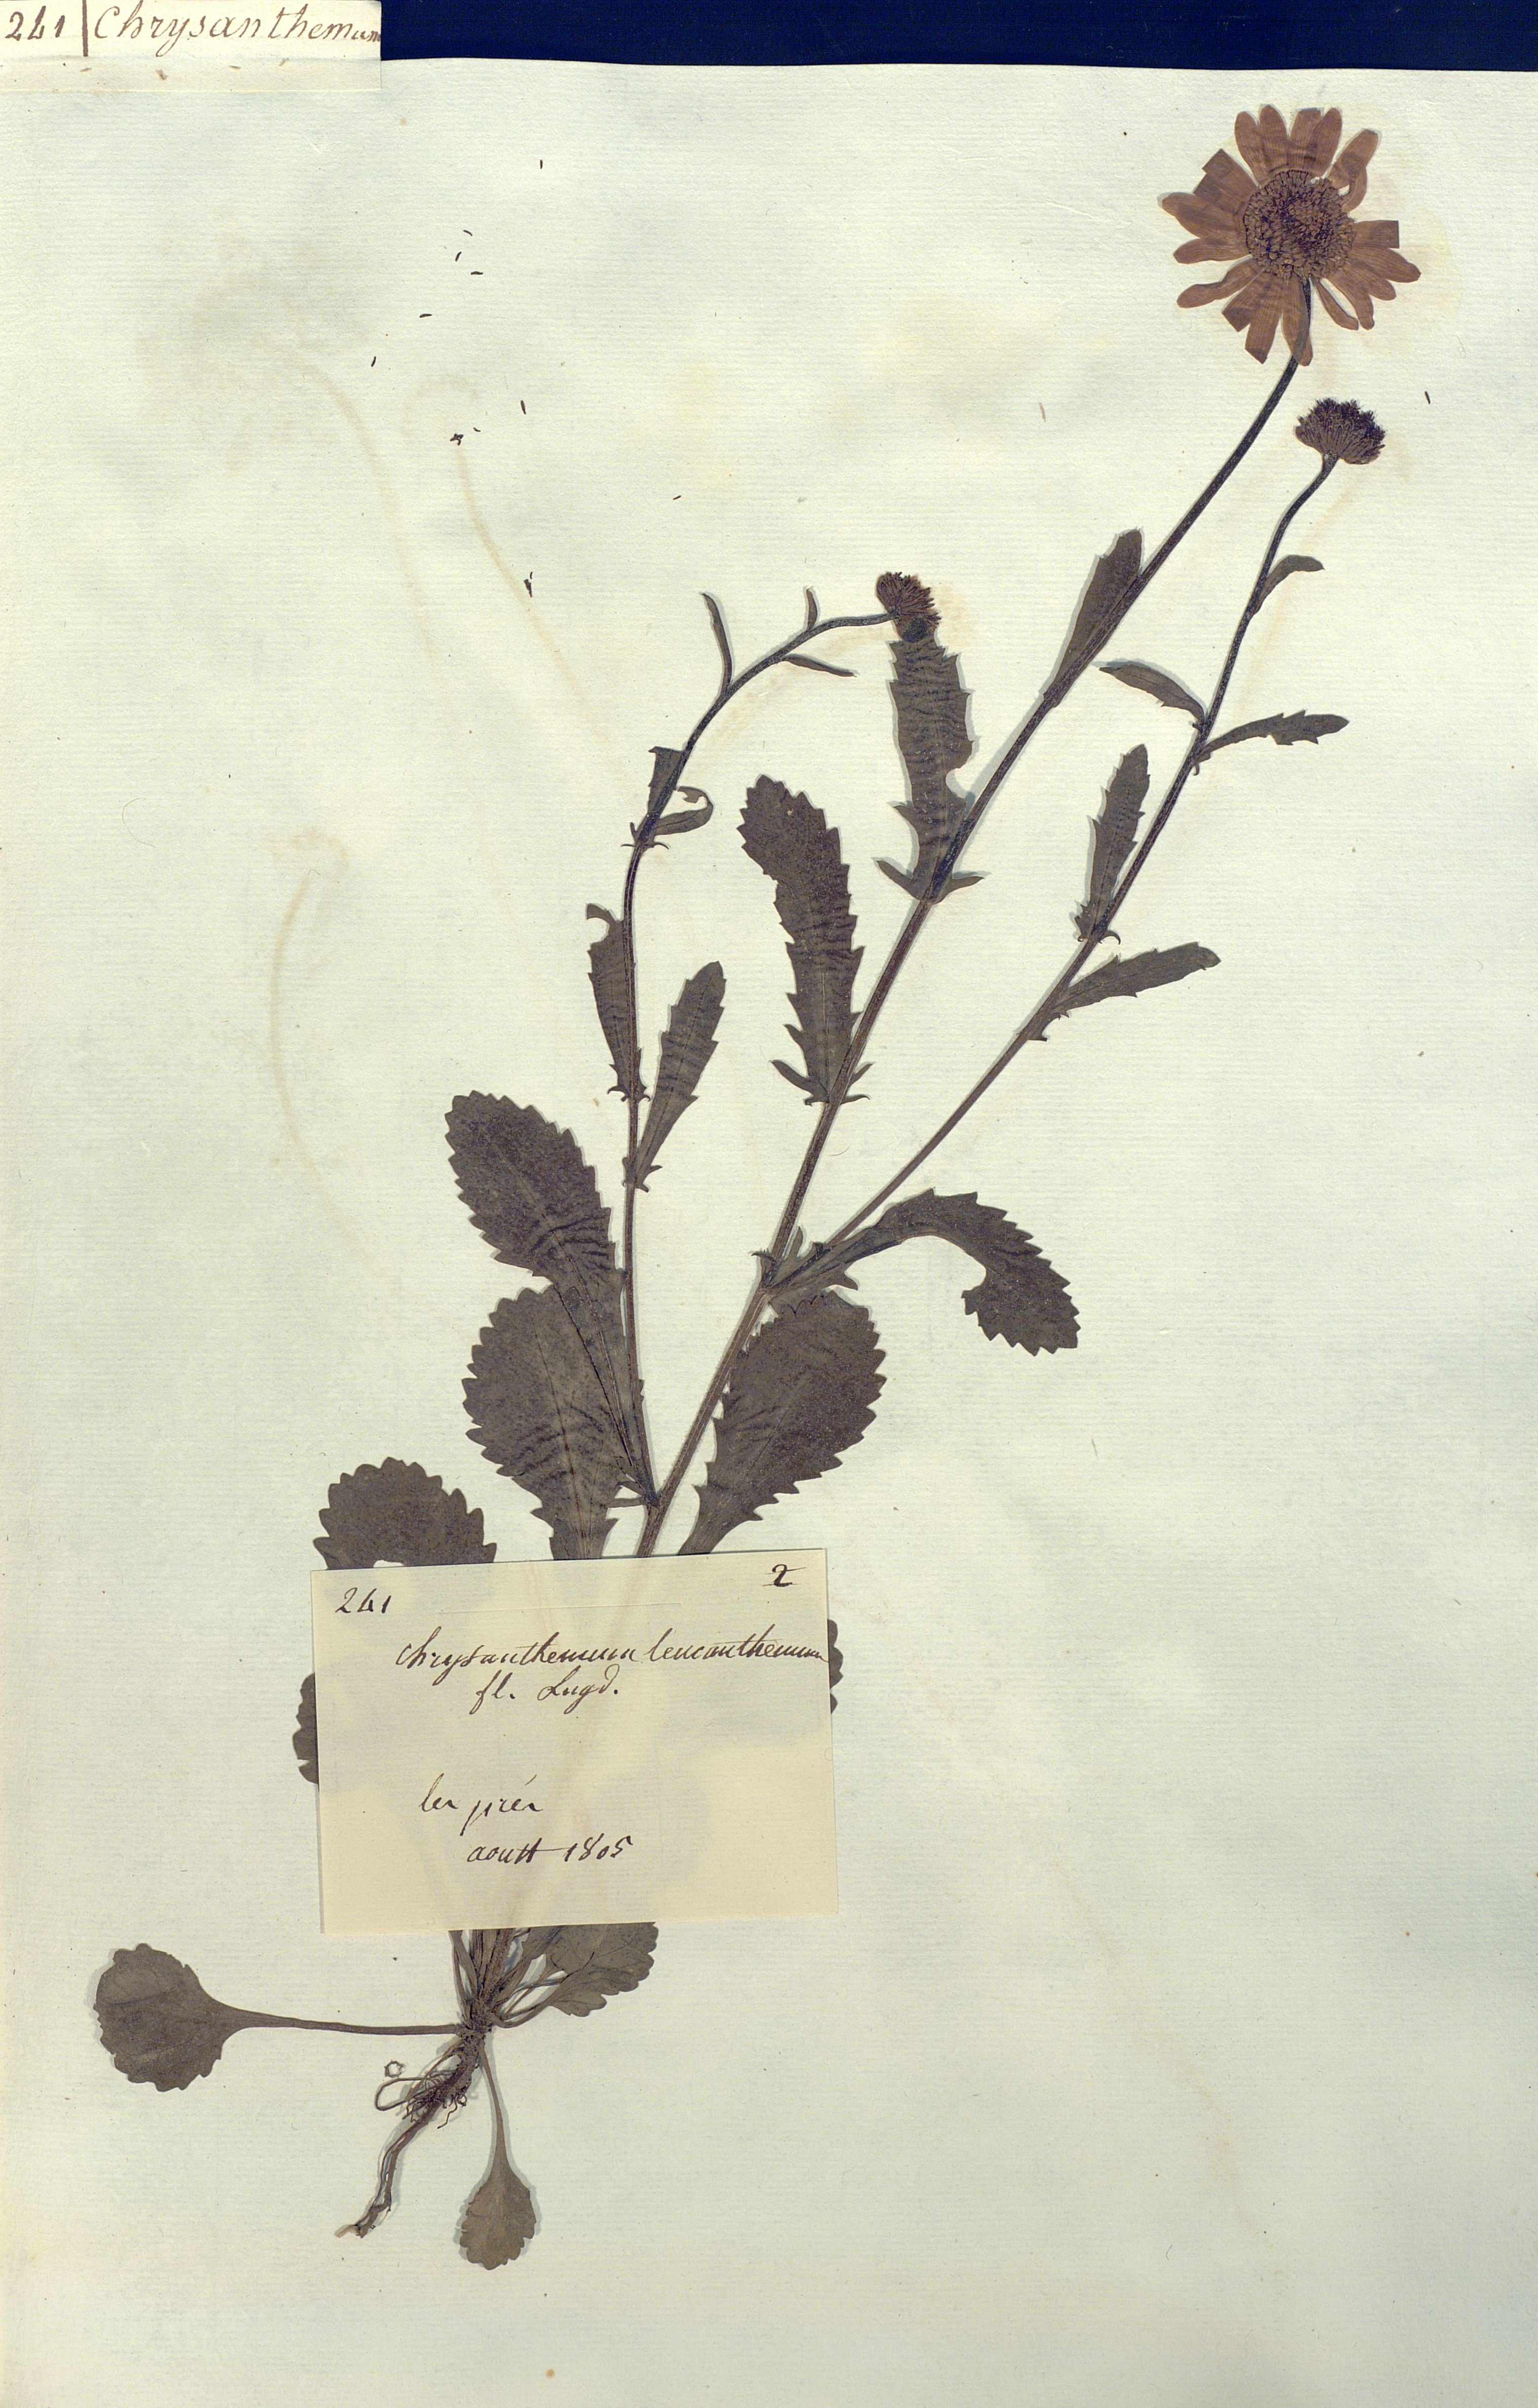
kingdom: Plantae
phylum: Tracheophyta
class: Magnoliopsida
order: Asterales
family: Asteraceae
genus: Leucanthemum
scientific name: Leucanthemum vulgare
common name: Oxeye daisy
